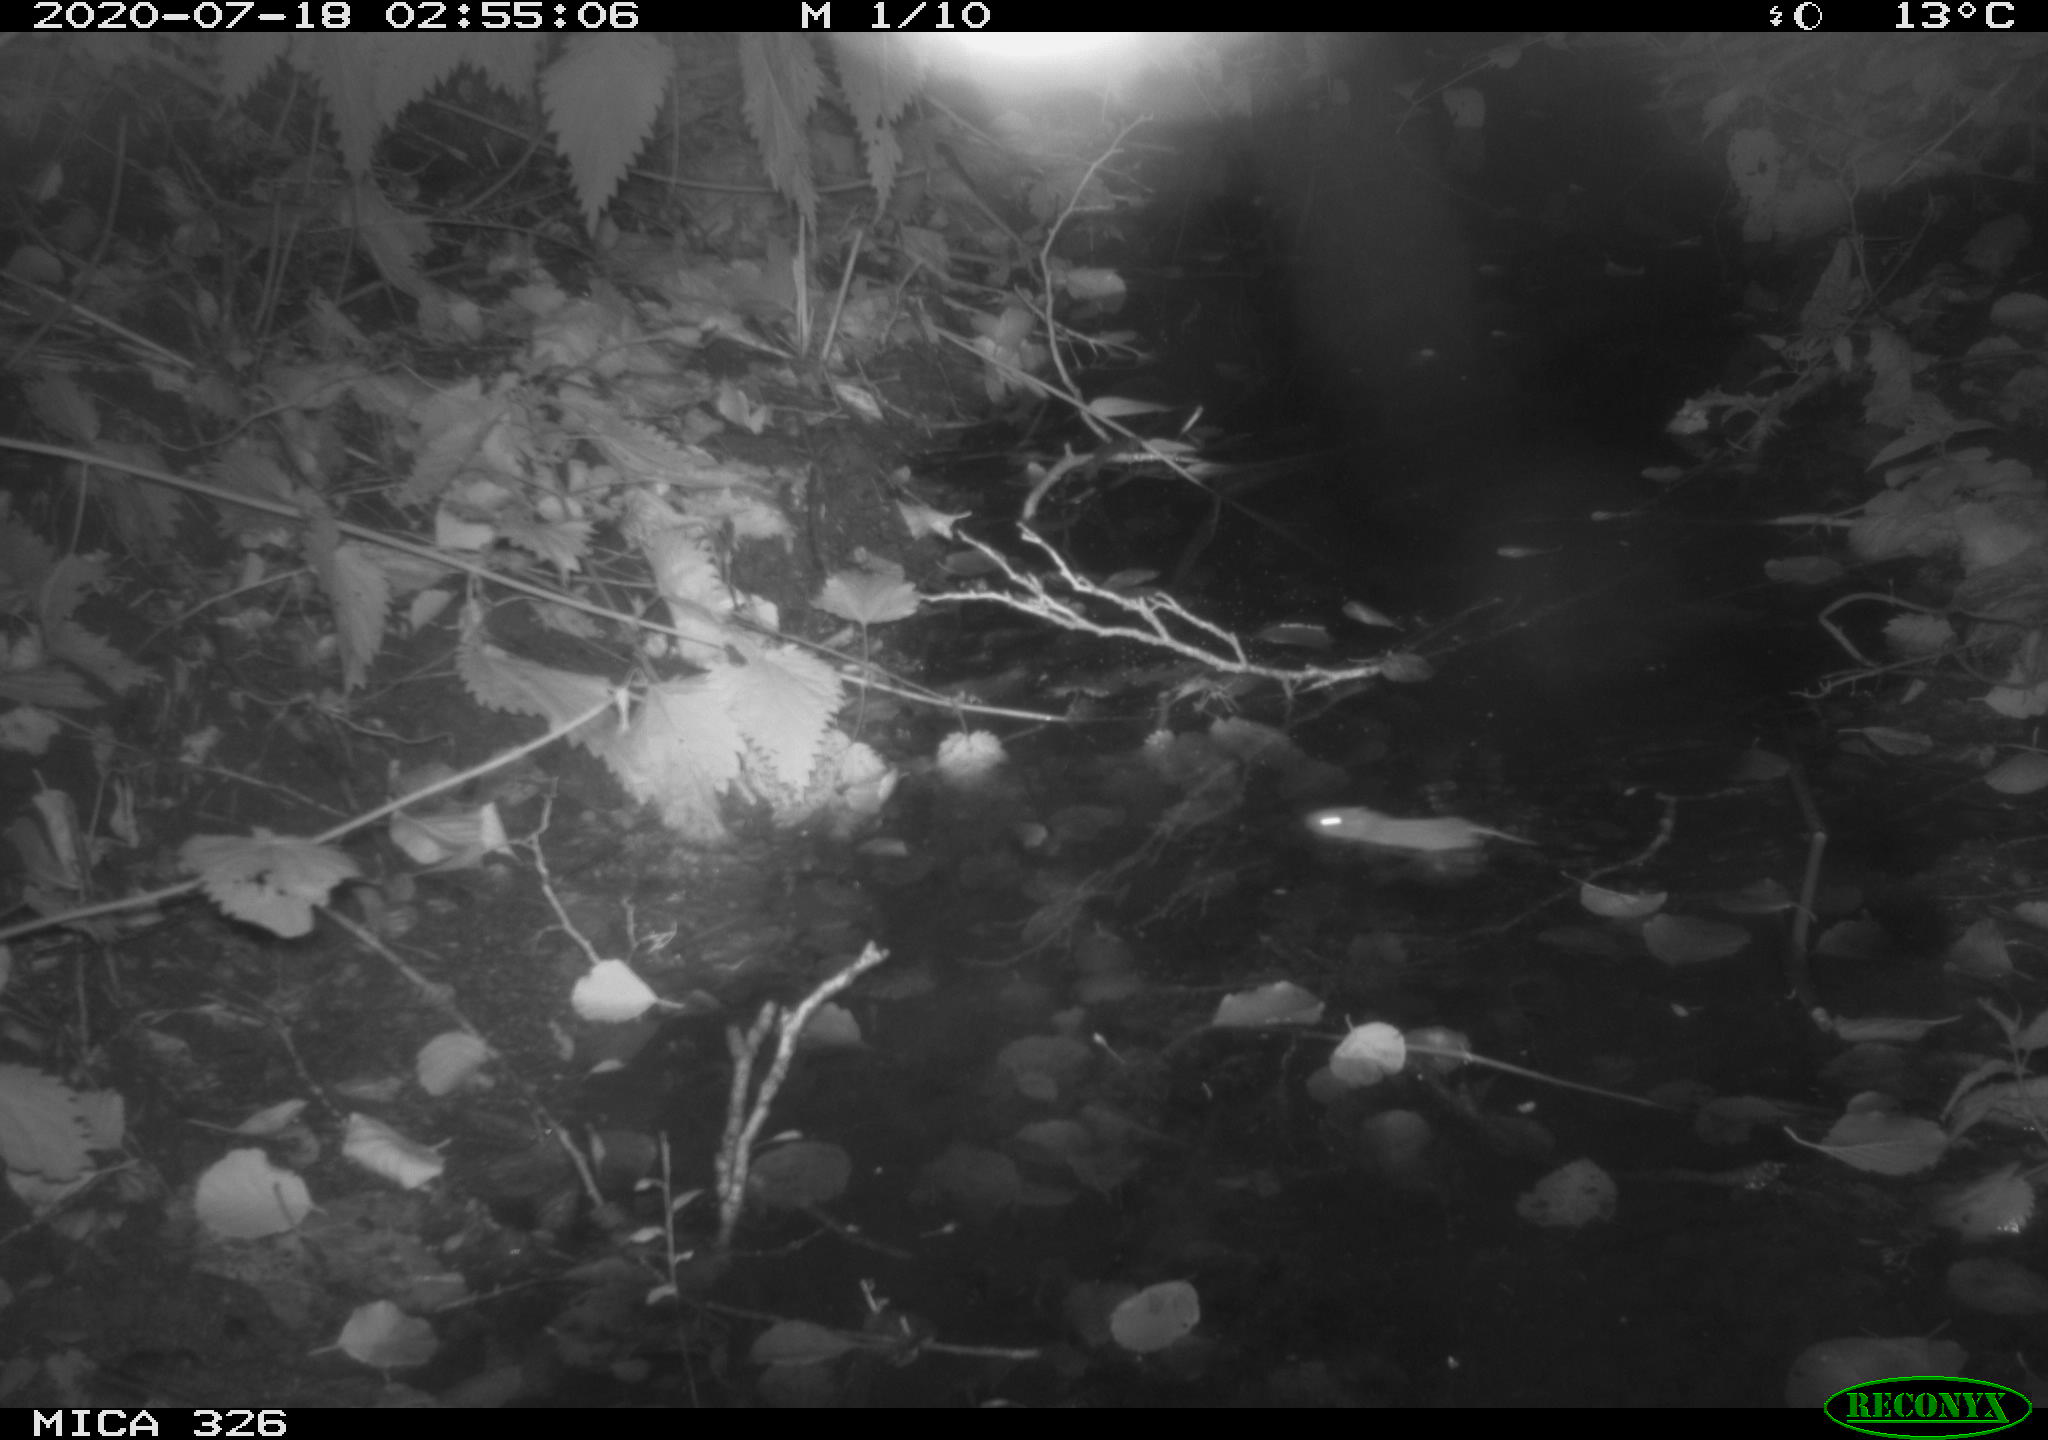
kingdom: Animalia
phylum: Chordata
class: Mammalia
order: Rodentia
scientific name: Rodentia
